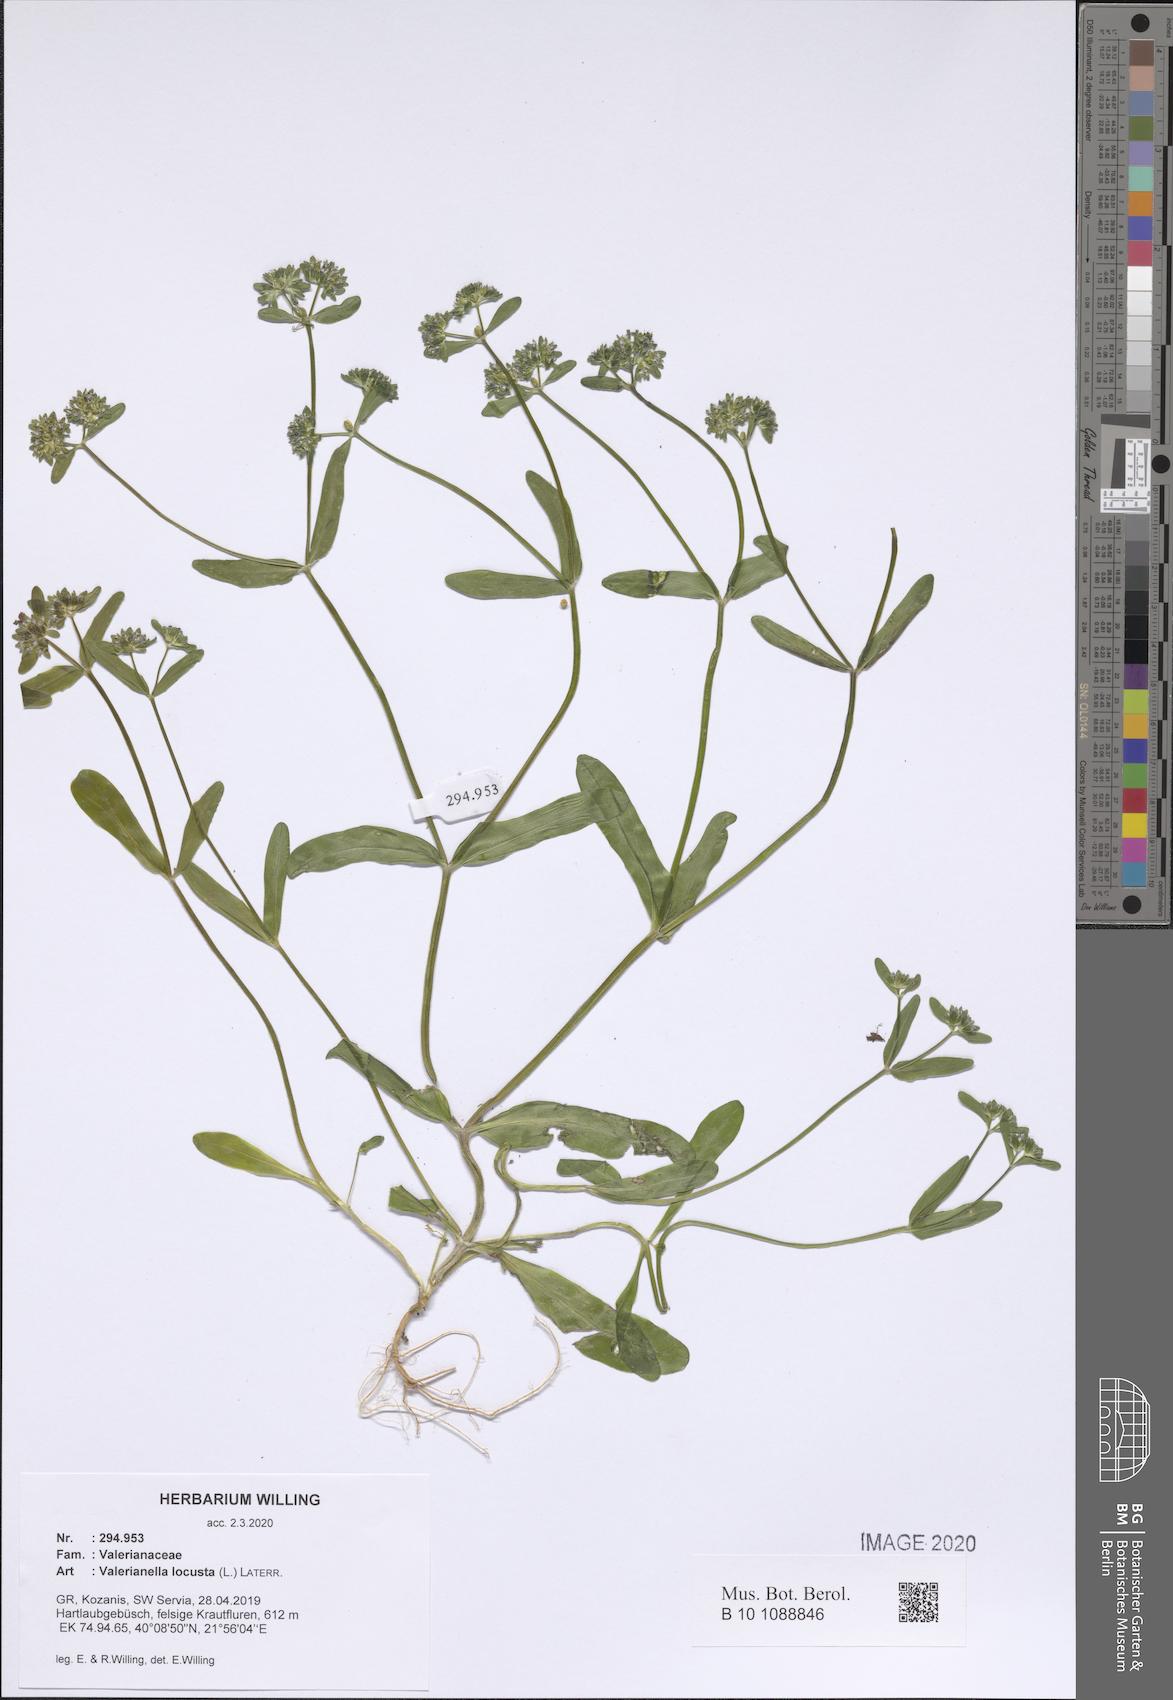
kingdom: Plantae
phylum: Tracheophyta
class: Magnoliopsida
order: Dipsacales
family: Caprifoliaceae
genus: Valerianella
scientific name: Valerianella locusta
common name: Common cornsalad
